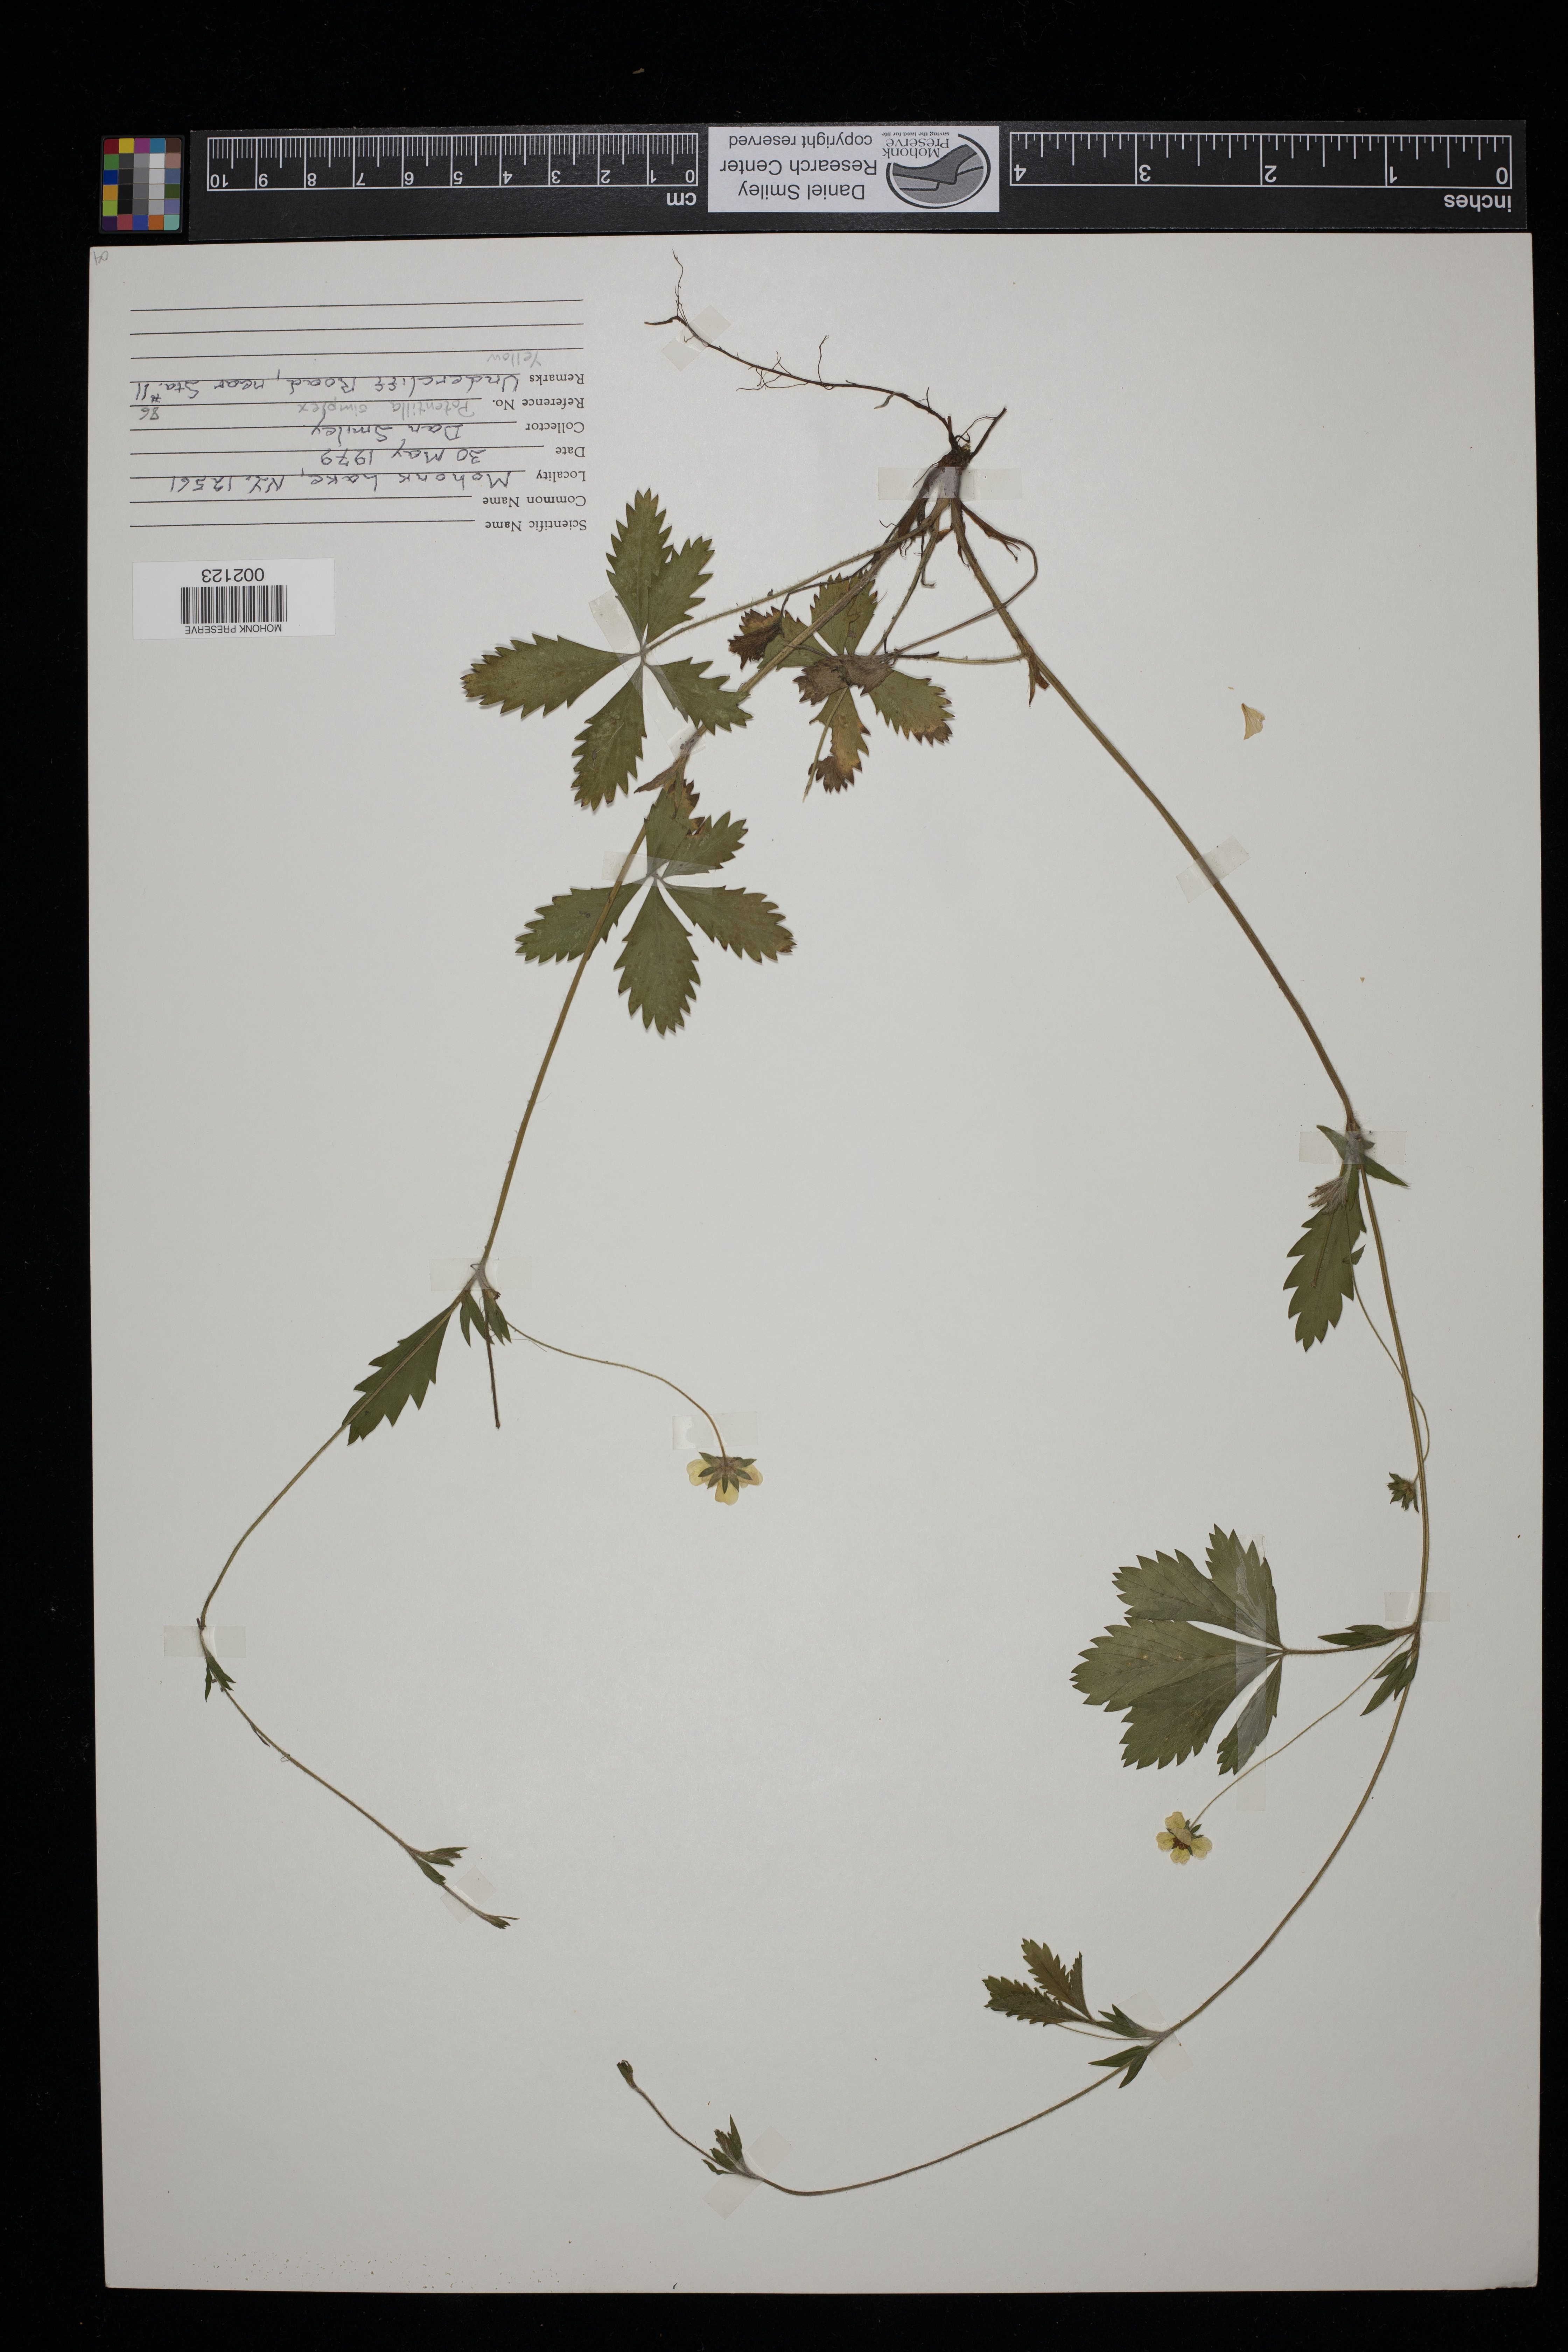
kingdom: Plantae
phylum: Tracheophyta
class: Magnoliopsida
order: Rosales
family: Rosaceae
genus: Potentilla
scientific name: Potentilla simplex
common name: Old field cinquefoil
